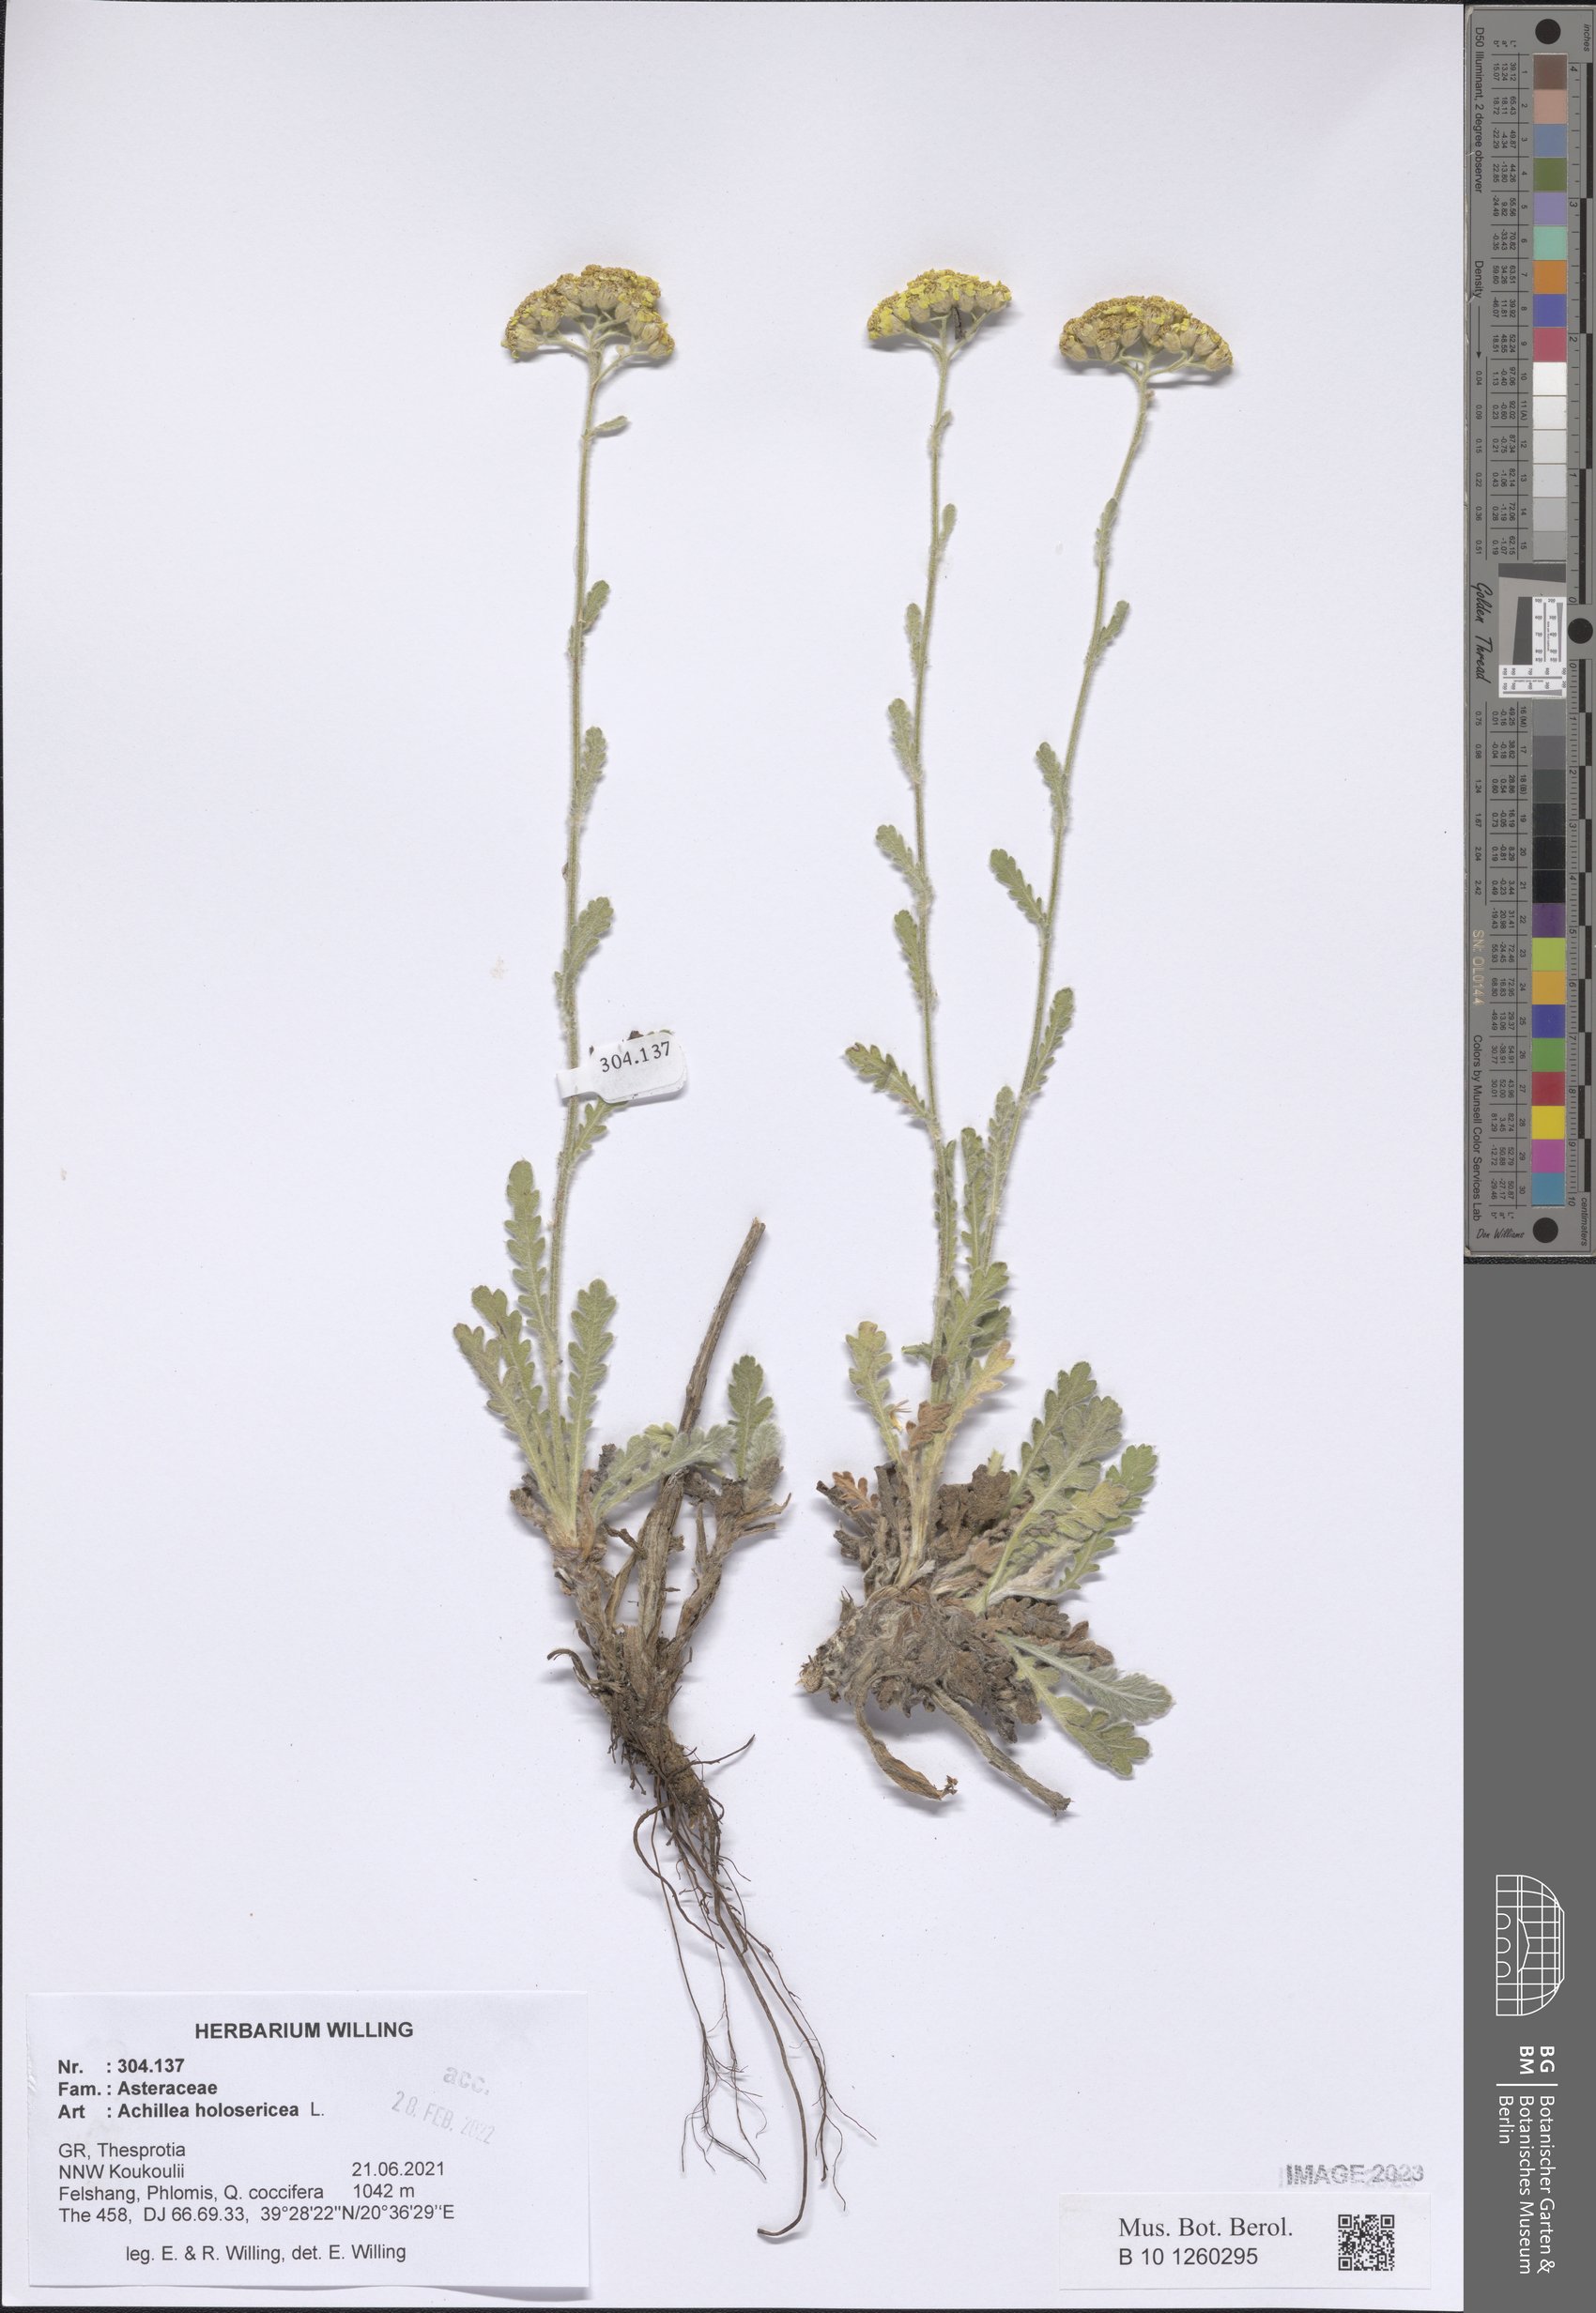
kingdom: Plantae
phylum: Tracheophyta
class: Magnoliopsida
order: Asterales
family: Asteraceae
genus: Achillea
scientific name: Achillea holosericea
